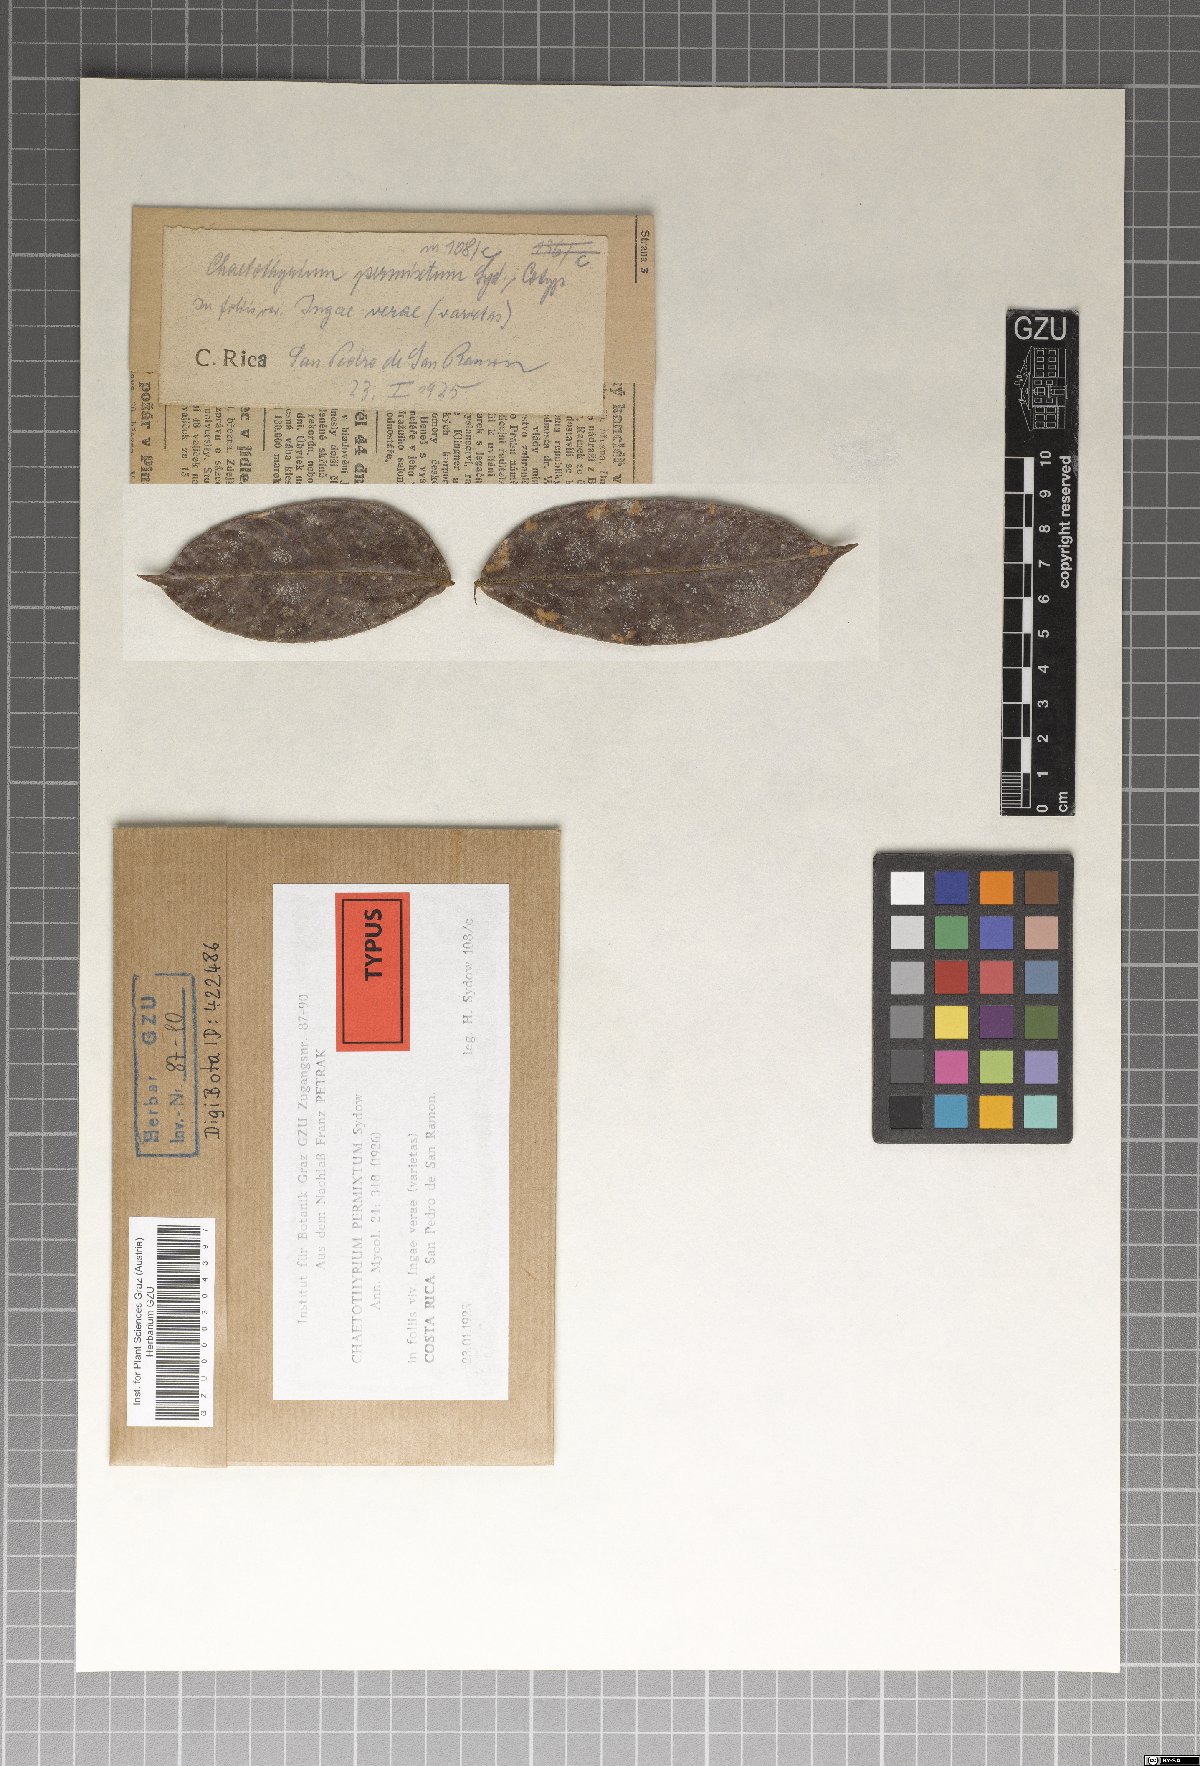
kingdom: Fungi
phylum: Ascomycota
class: Eurotiomycetes
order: Chaetothyriales
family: Chaetothyriaceae
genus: Chaetothyrium
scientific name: Chaetothyrium permixtum
